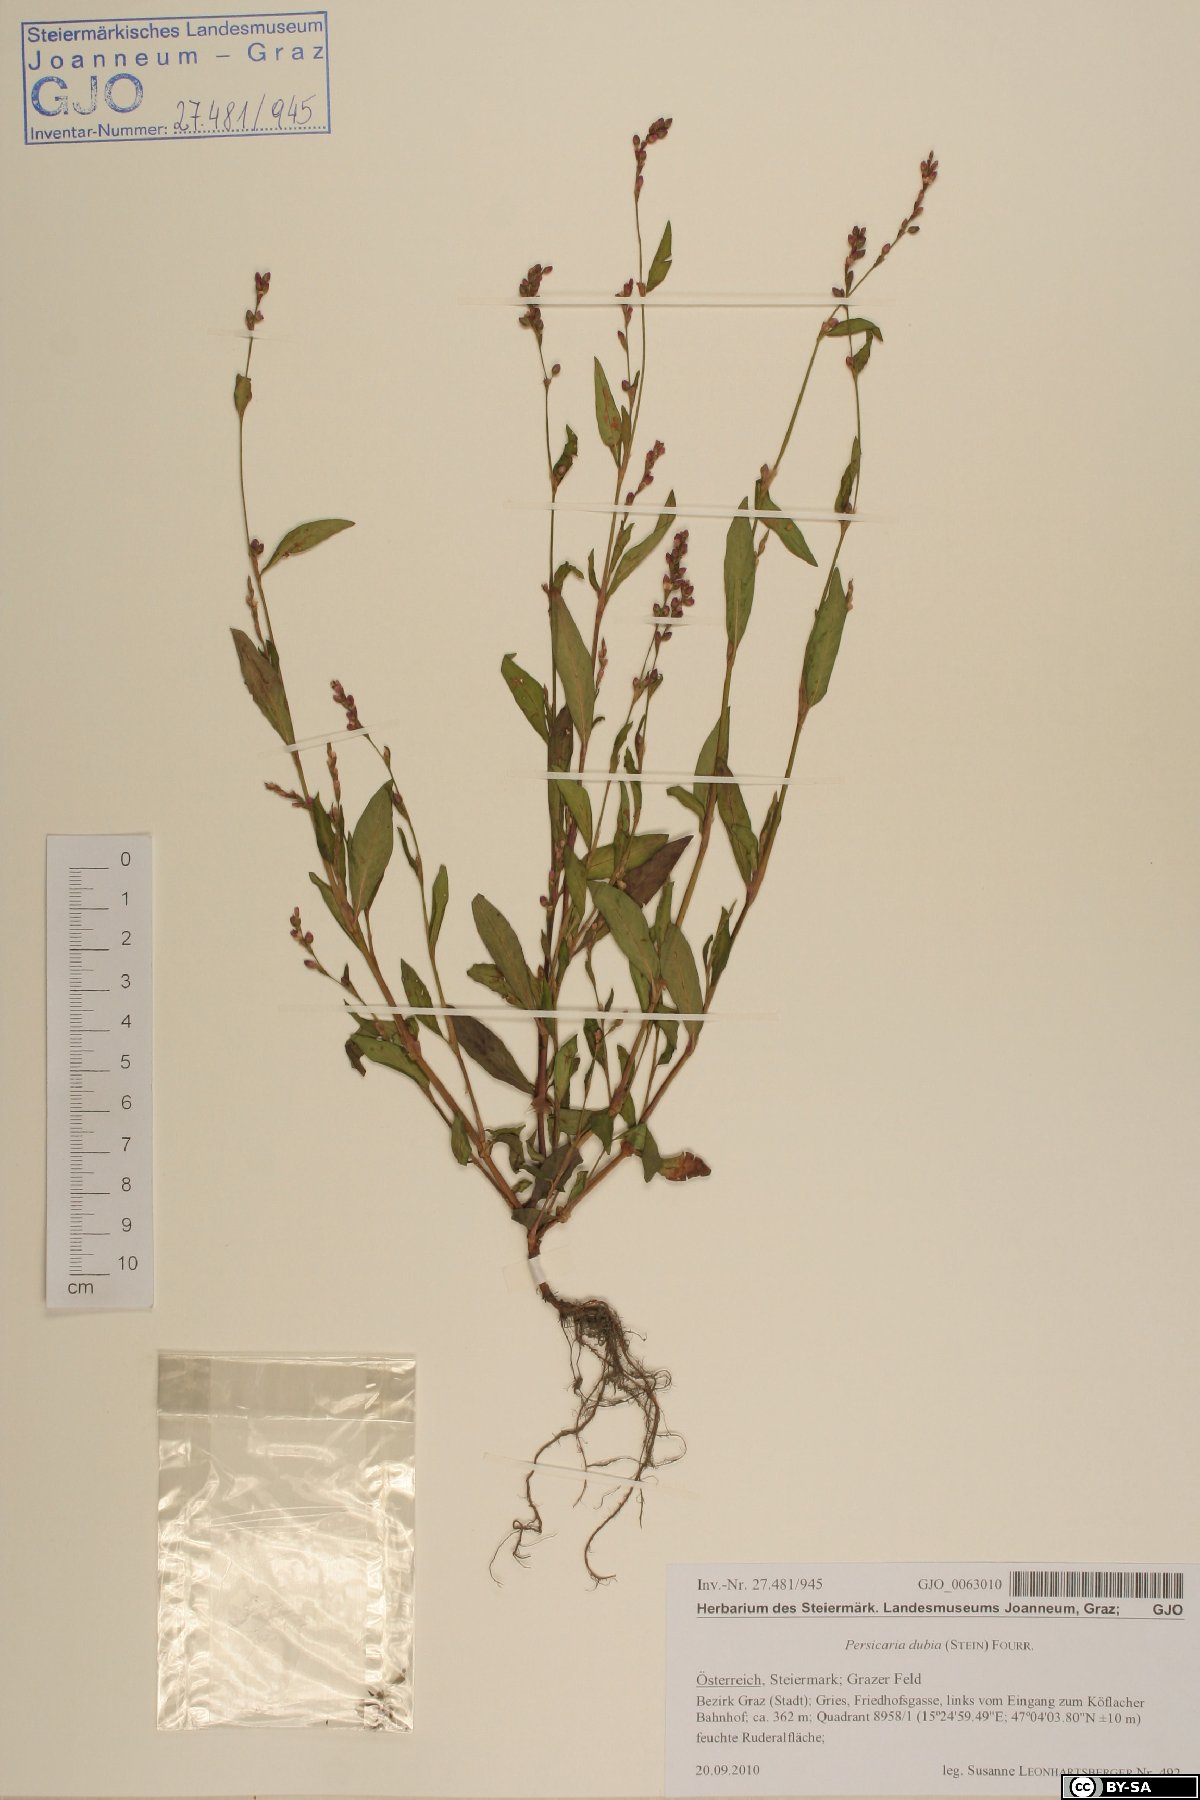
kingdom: Plantae
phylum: Tracheophyta
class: Magnoliopsida
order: Caryophyllales
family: Polygonaceae
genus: Persicaria
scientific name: Persicaria mitis
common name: Tasteless water-pepper
